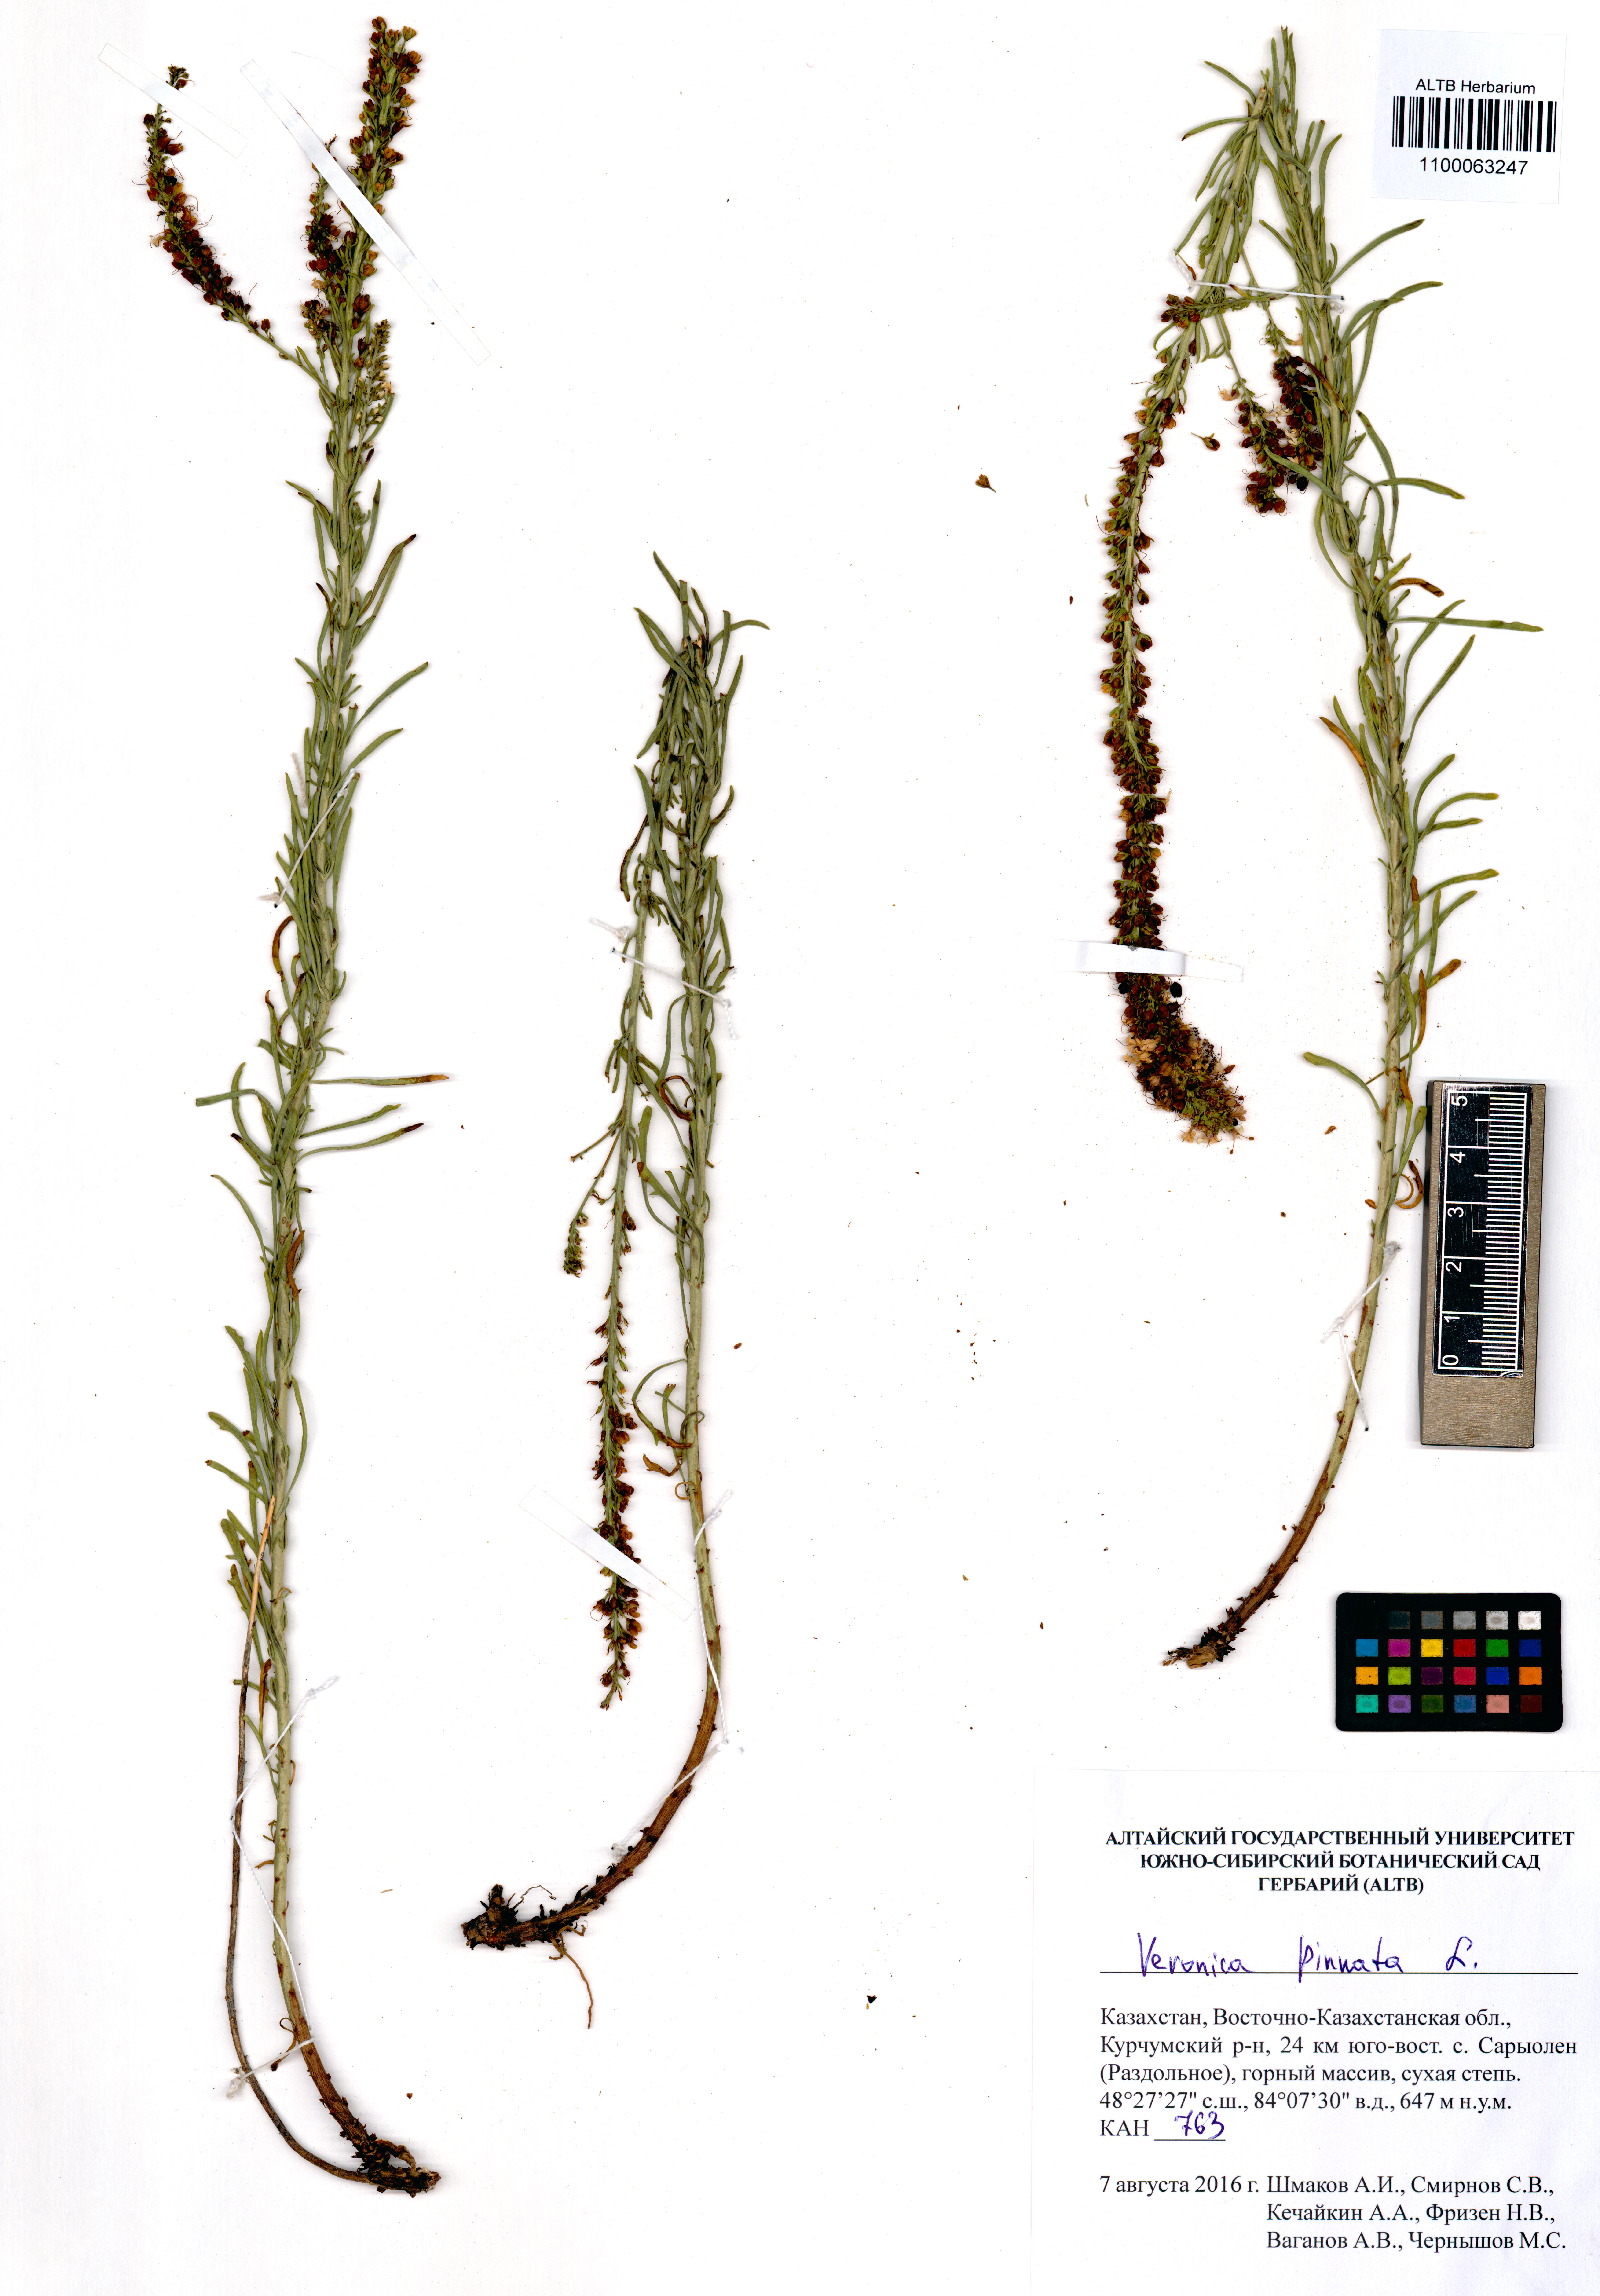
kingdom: Plantae
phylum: Tracheophyta
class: Magnoliopsida
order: Lamiales
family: Plantaginaceae
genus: Veronica
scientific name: Veronica pinnata
